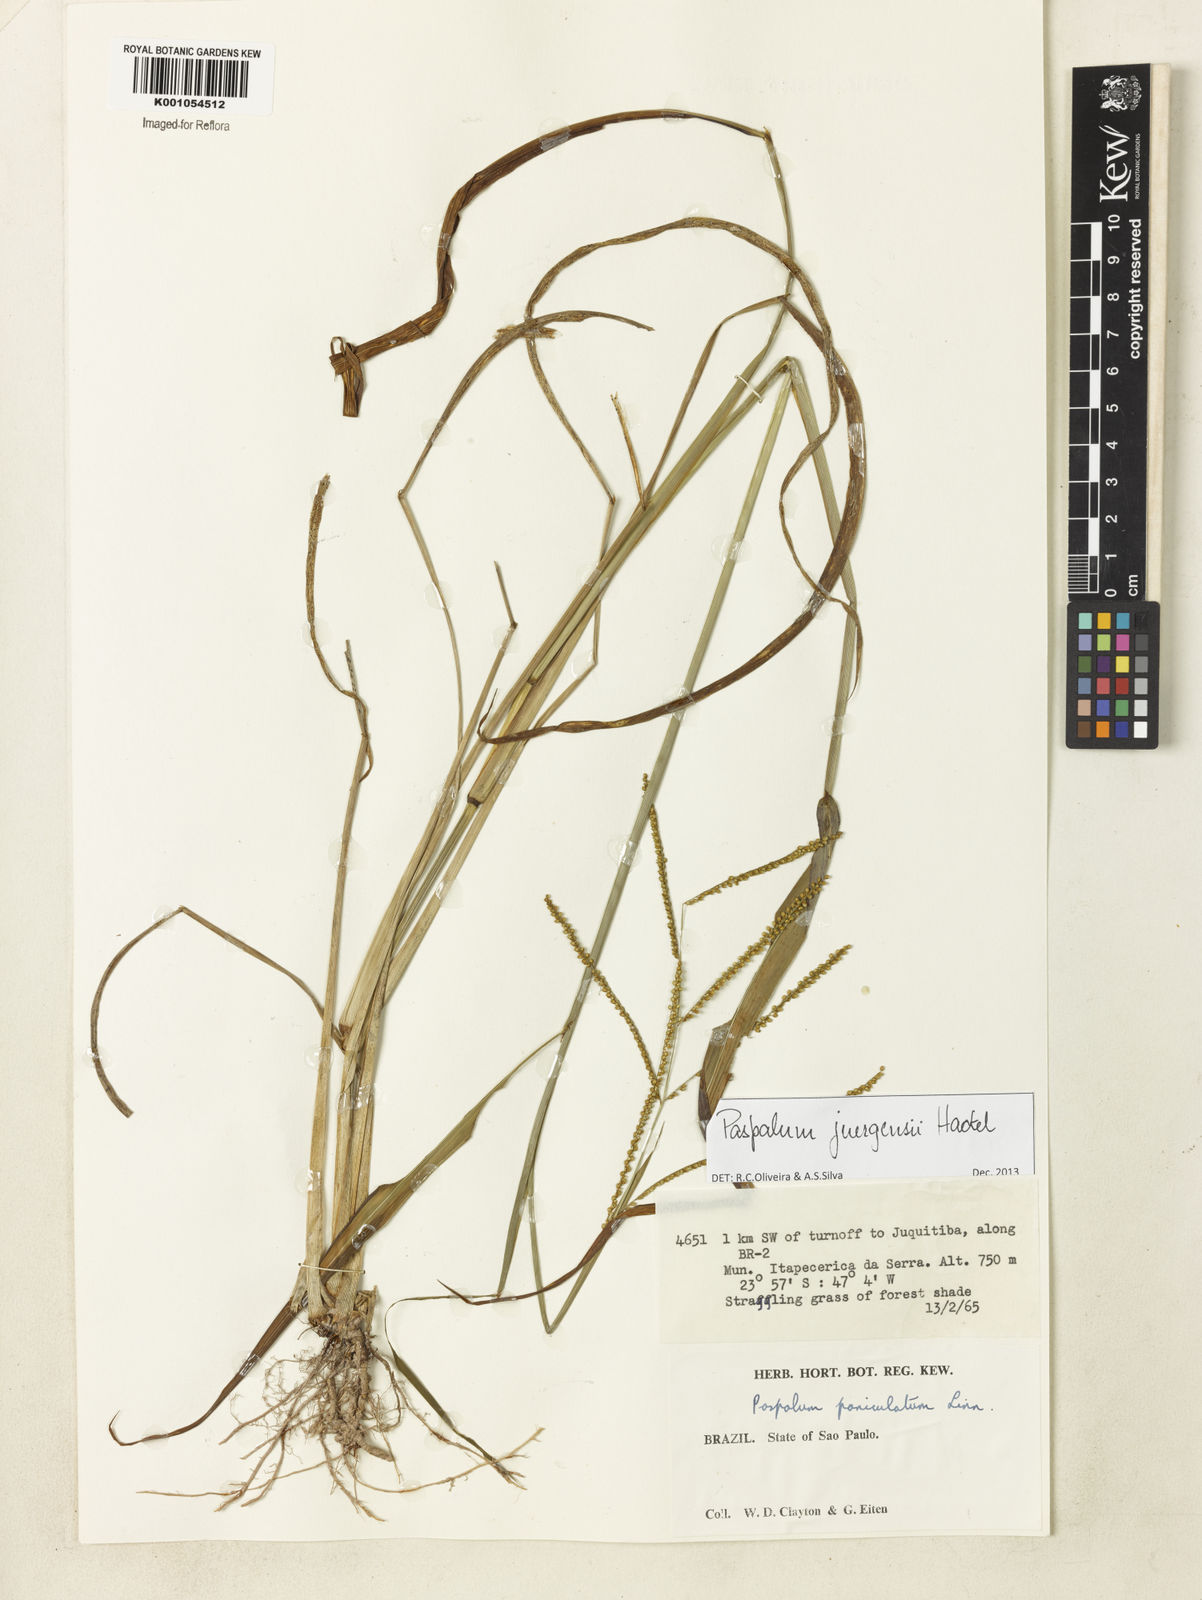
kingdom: Plantae
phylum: Tracheophyta
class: Liliopsida
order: Poales
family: Poaceae
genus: Paspalum
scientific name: Paspalum juergensii
